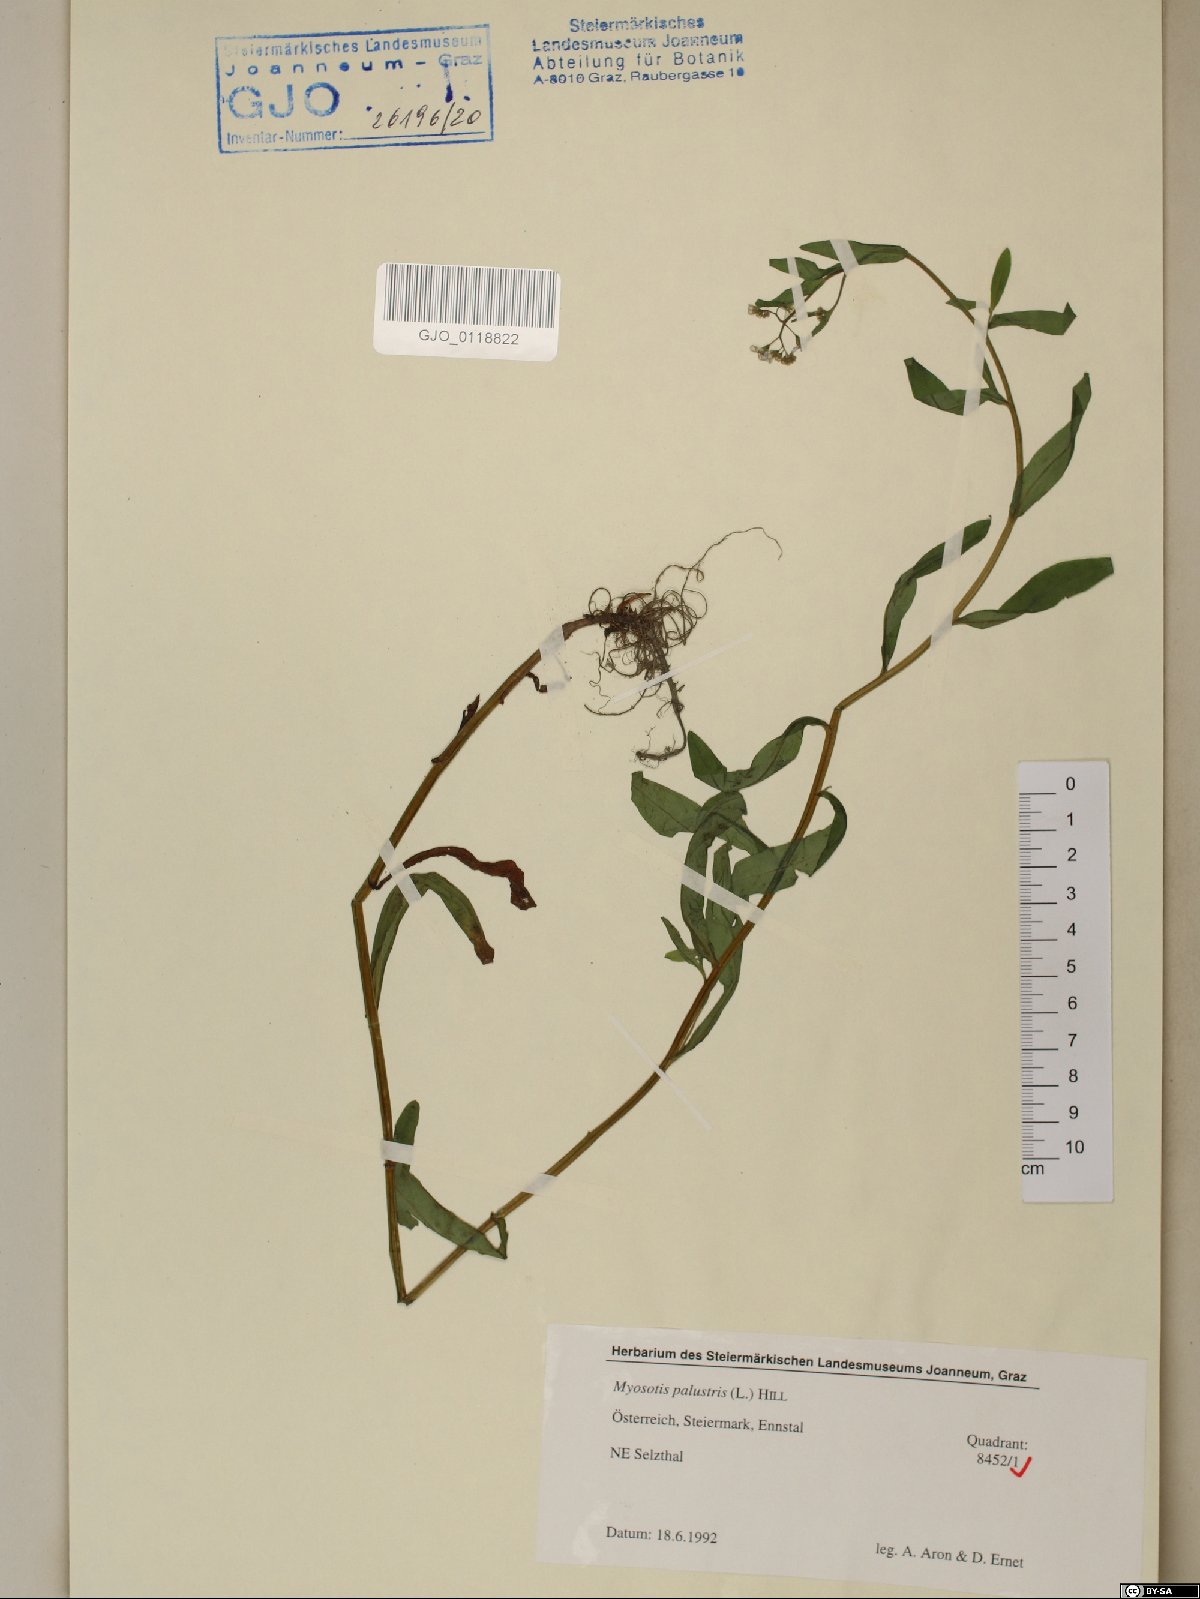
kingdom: Plantae
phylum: Tracheophyta
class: Magnoliopsida
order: Boraginales
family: Boraginaceae
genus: Myosotis
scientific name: Myosotis scorpioides
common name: Water forget-me-not
